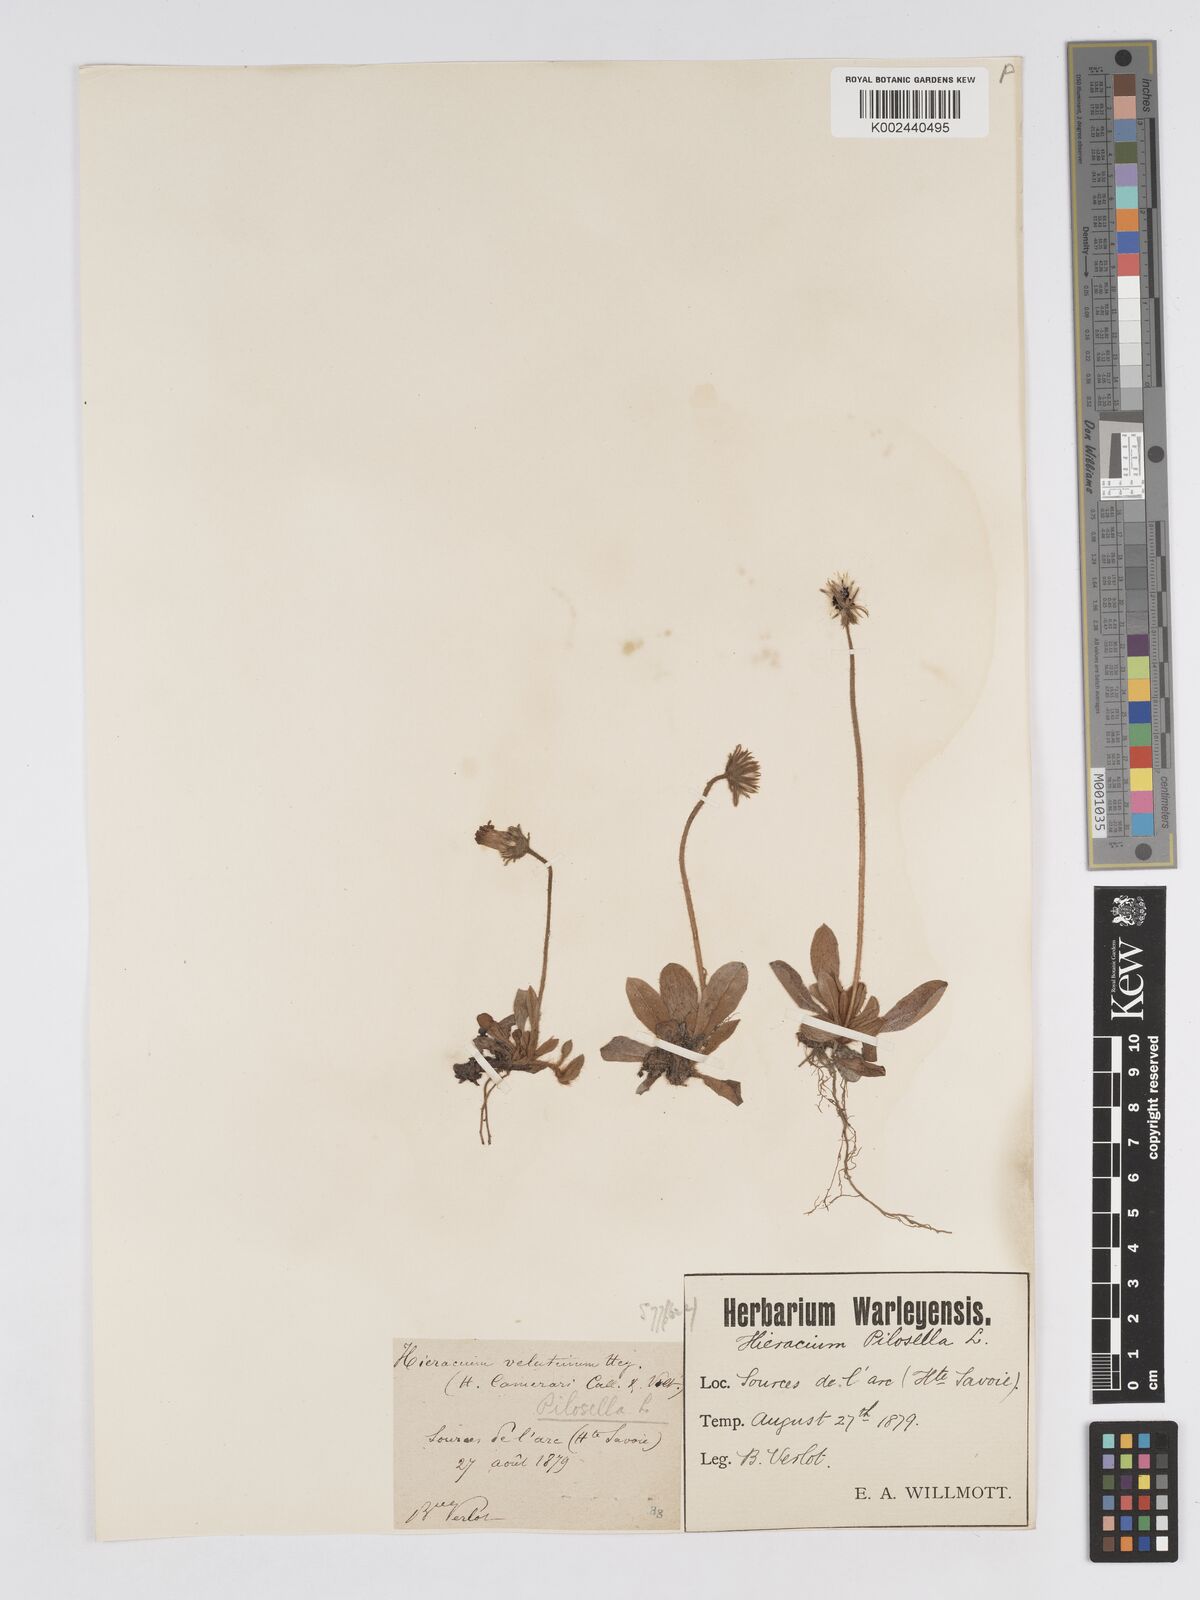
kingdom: Plantae
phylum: Tracheophyta
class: Magnoliopsida
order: Asterales
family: Asteraceae
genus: Pilosella
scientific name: Pilosella velutina
